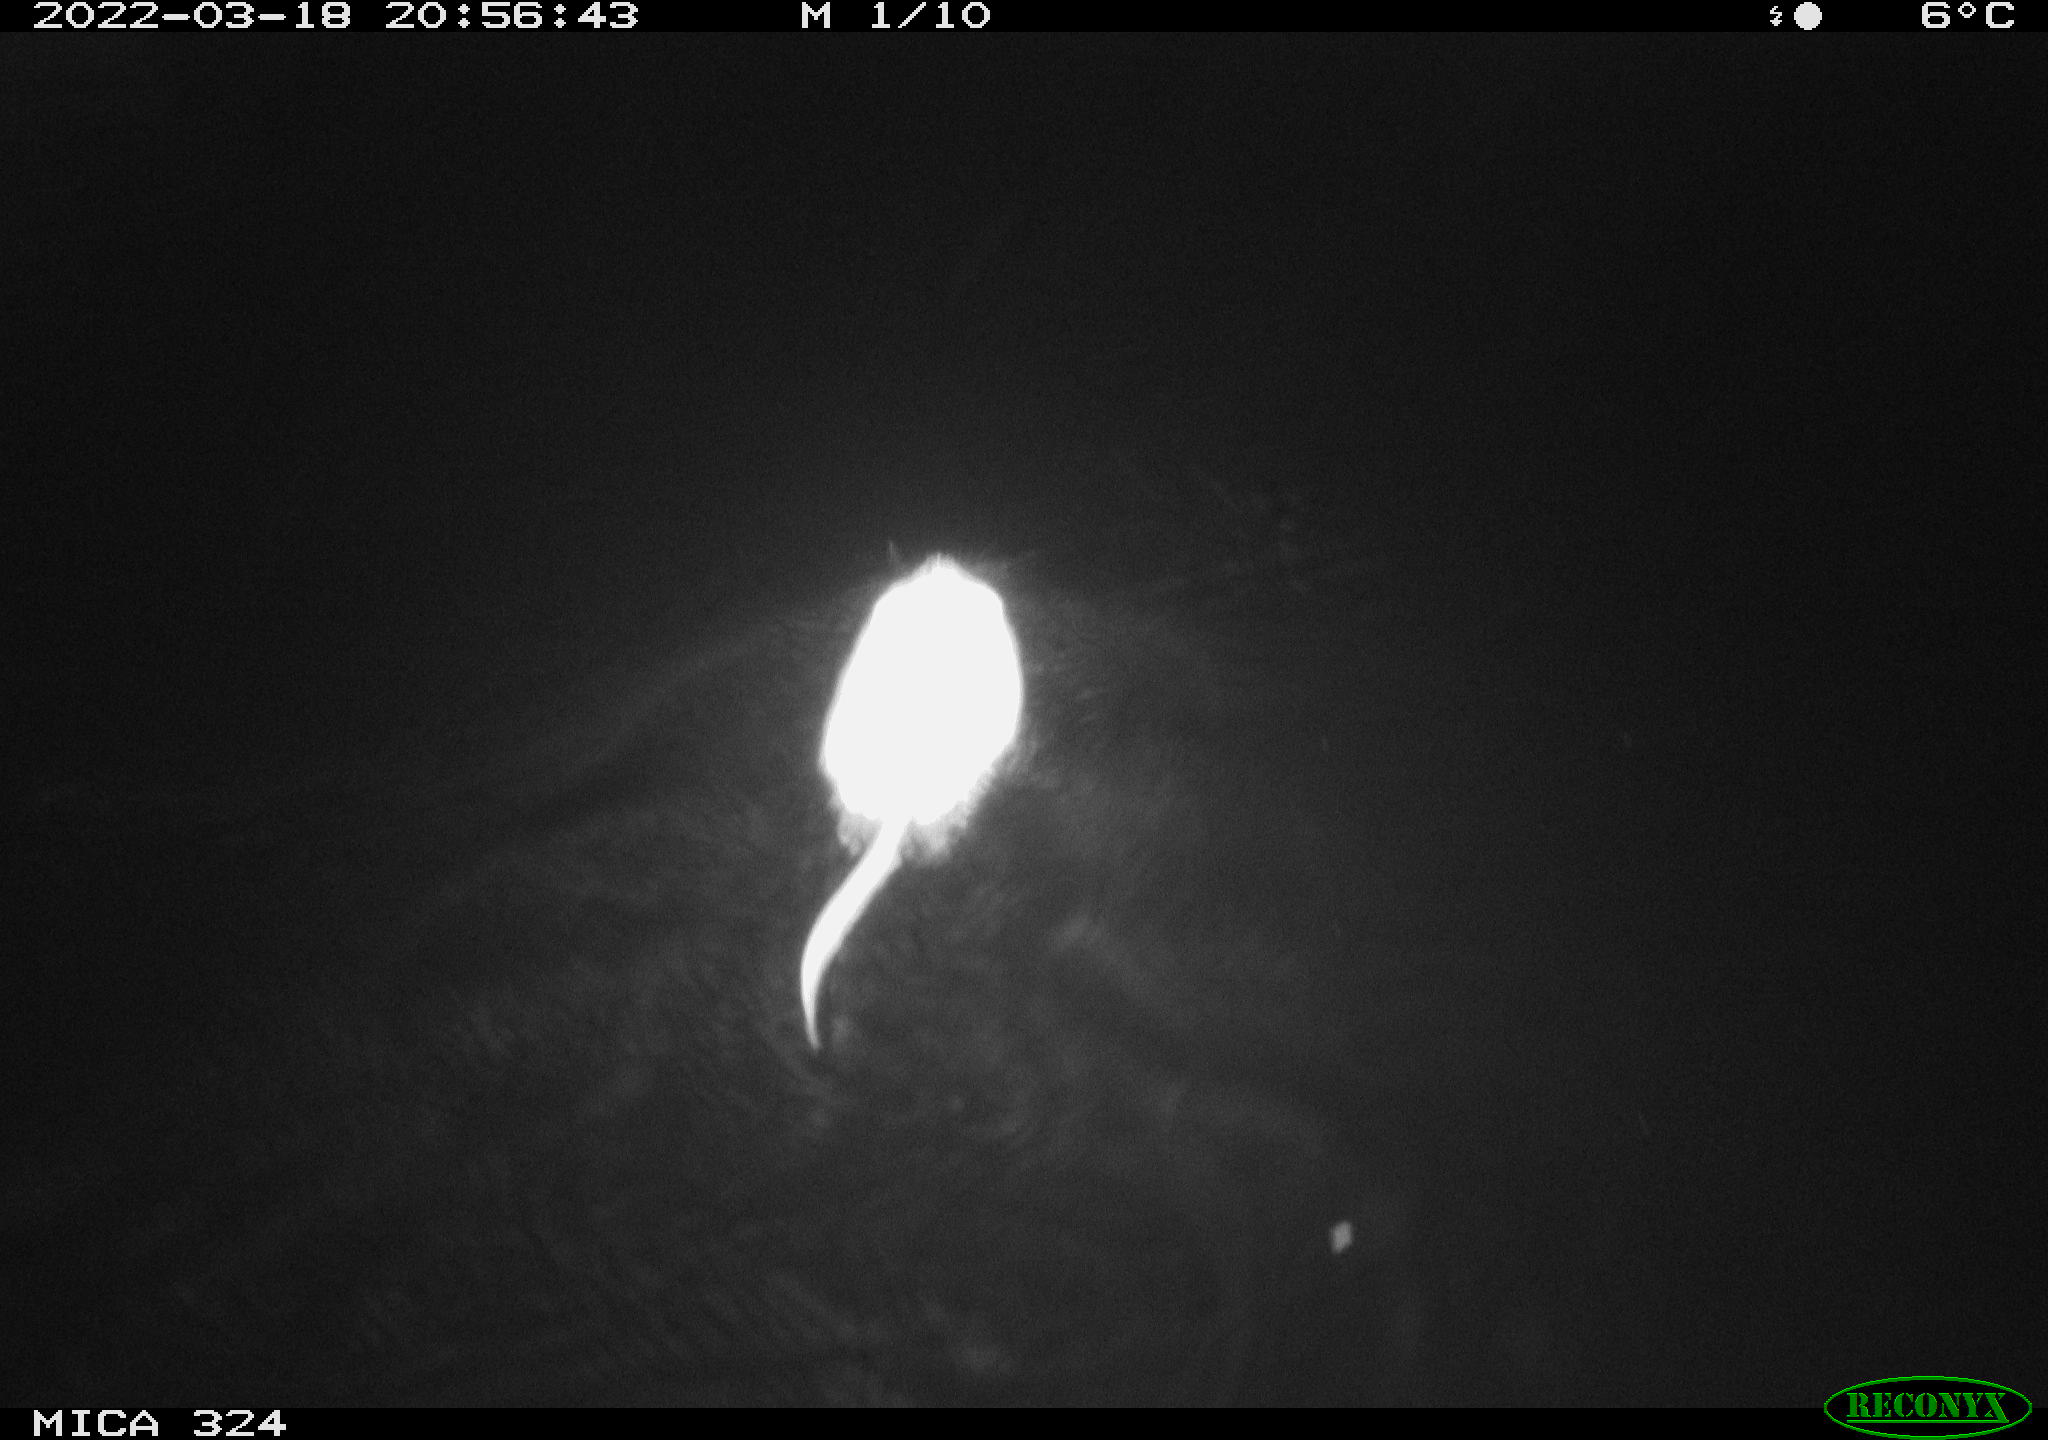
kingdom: Animalia
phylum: Chordata
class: Mammalia
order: Rodentia
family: Cricetidae
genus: Ondatra
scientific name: Ondatra zibethicus
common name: Muskrat
